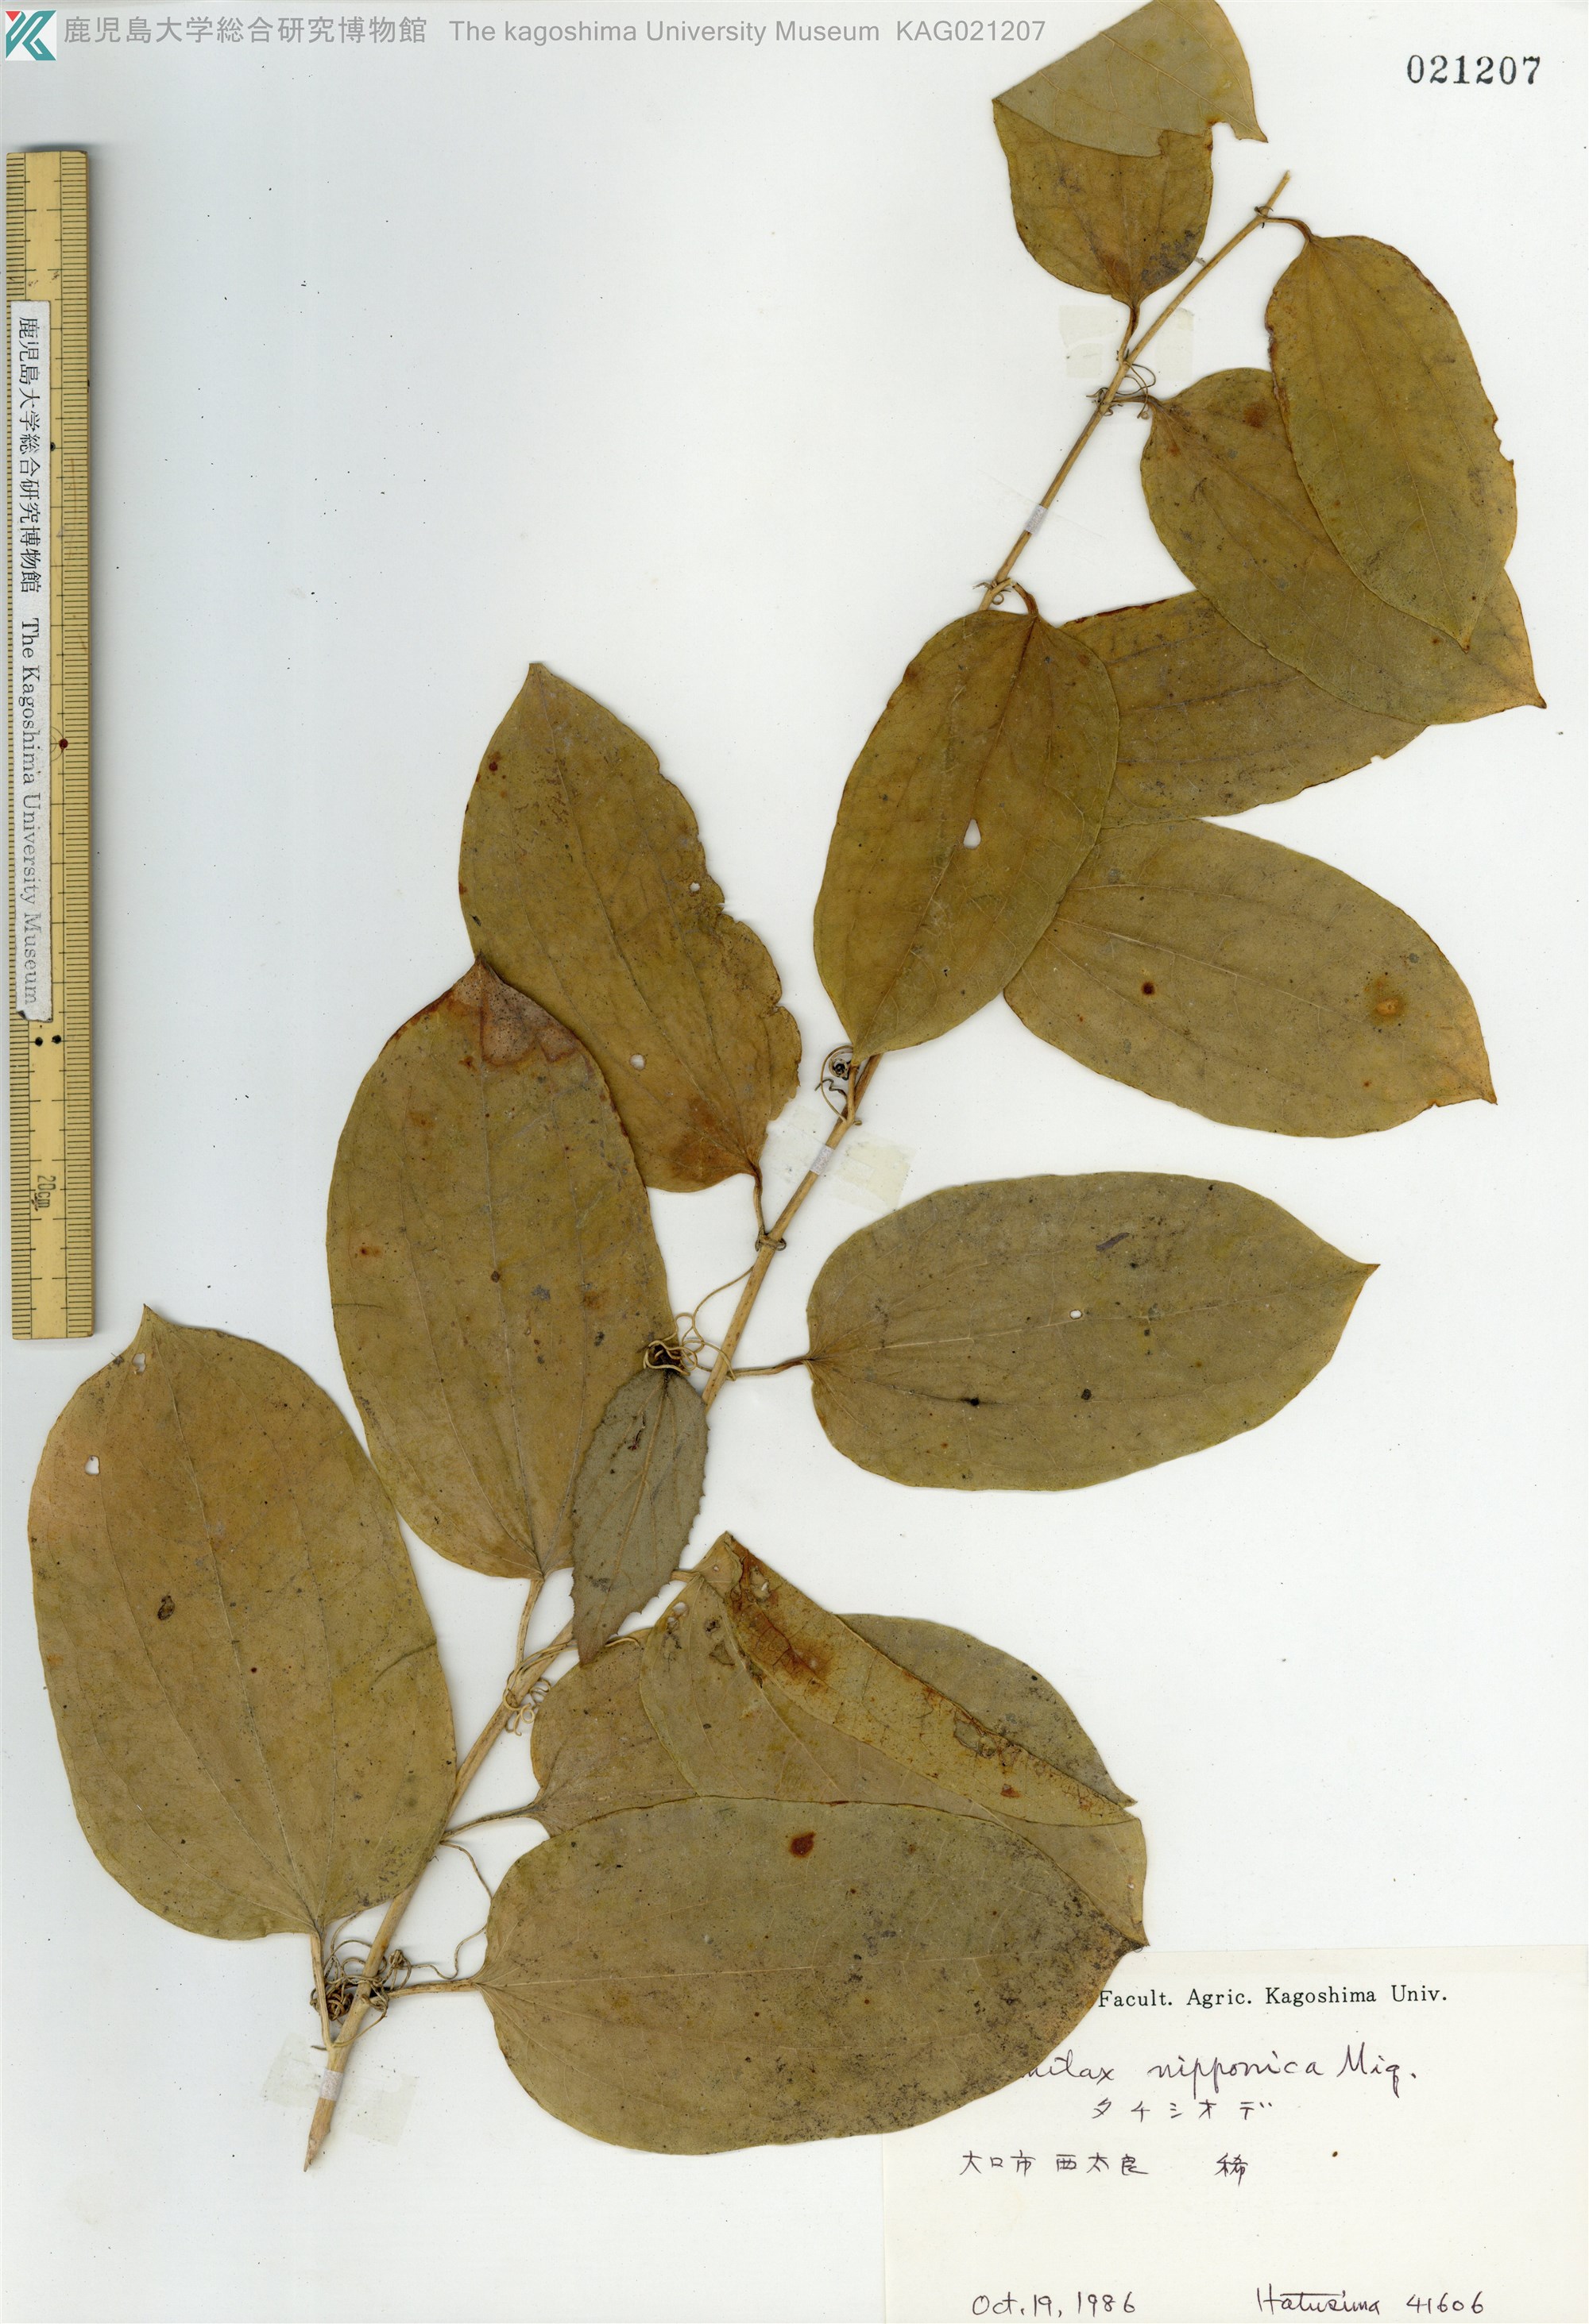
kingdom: Plantae
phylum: Tracheophyta
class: Liliopsida
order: Liliales
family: Smilacaceae
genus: Smilax
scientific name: Smilax nipponica
